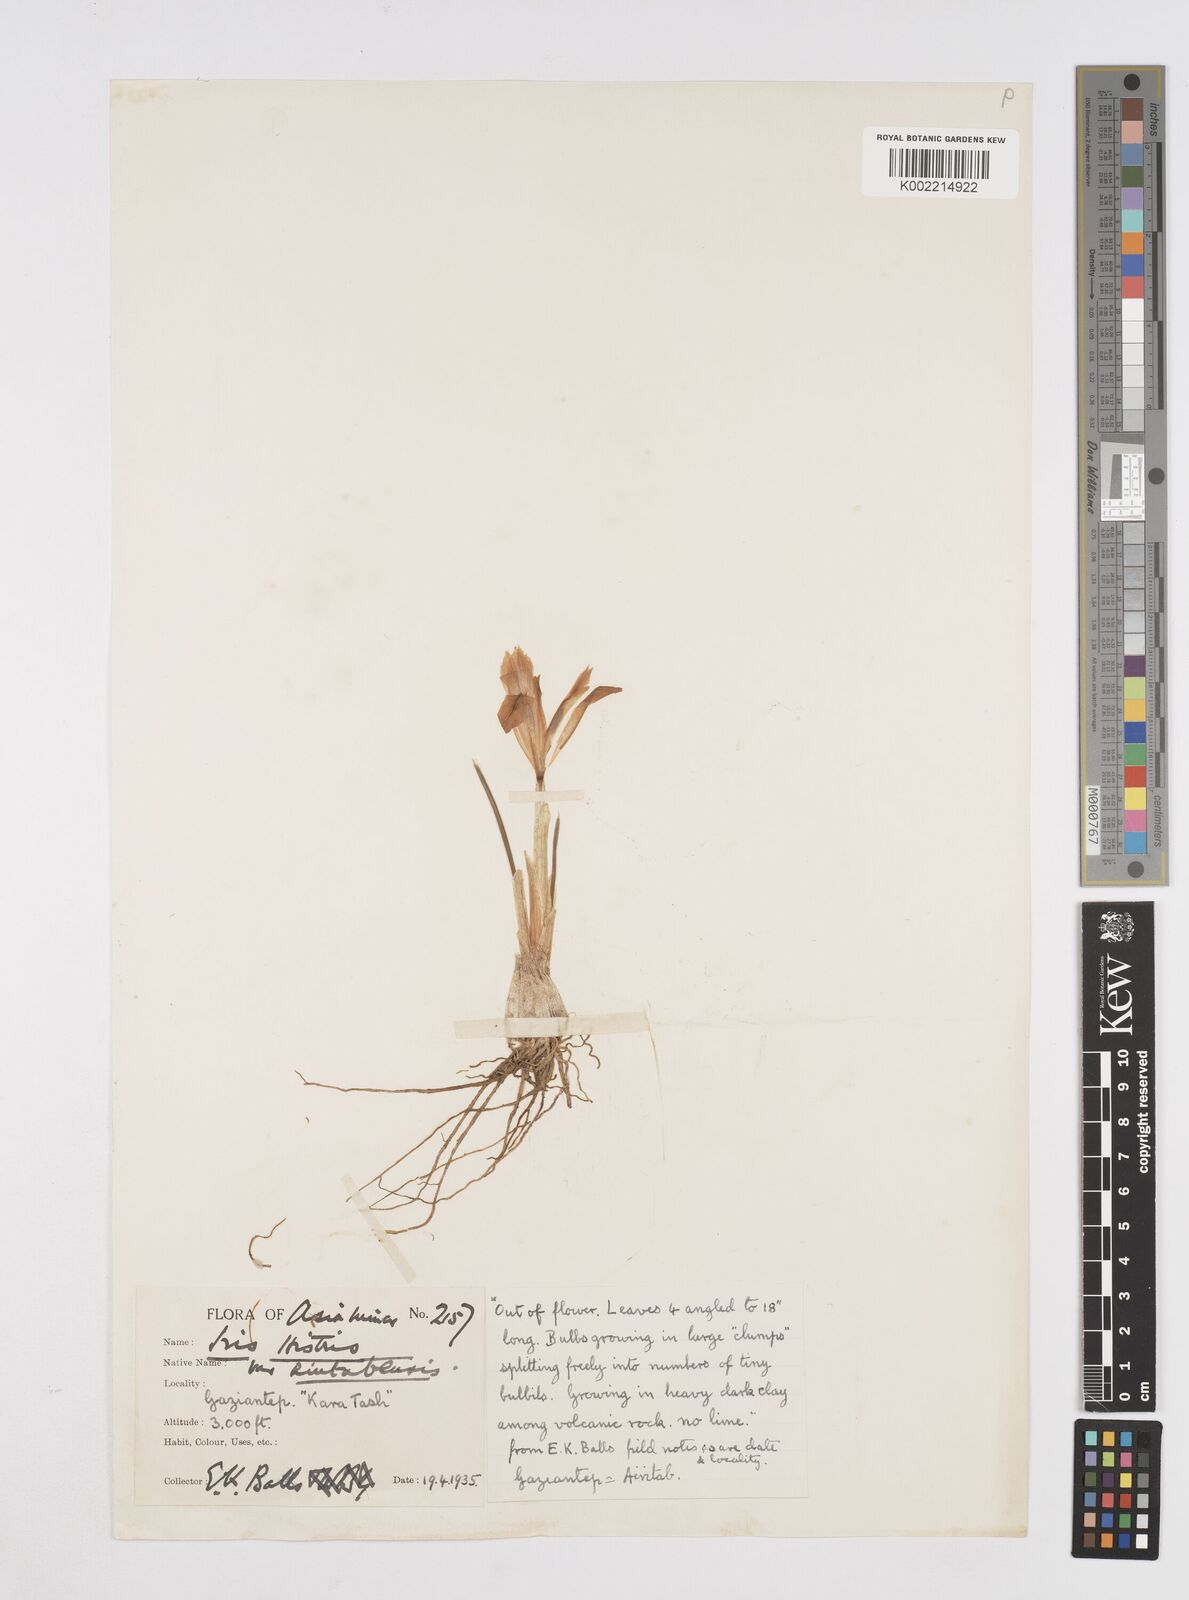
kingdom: Plantae
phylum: Tracheophyta
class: Liliopsida
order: Asparagales
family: Iridaceae
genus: Iris
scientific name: Iris histrio
